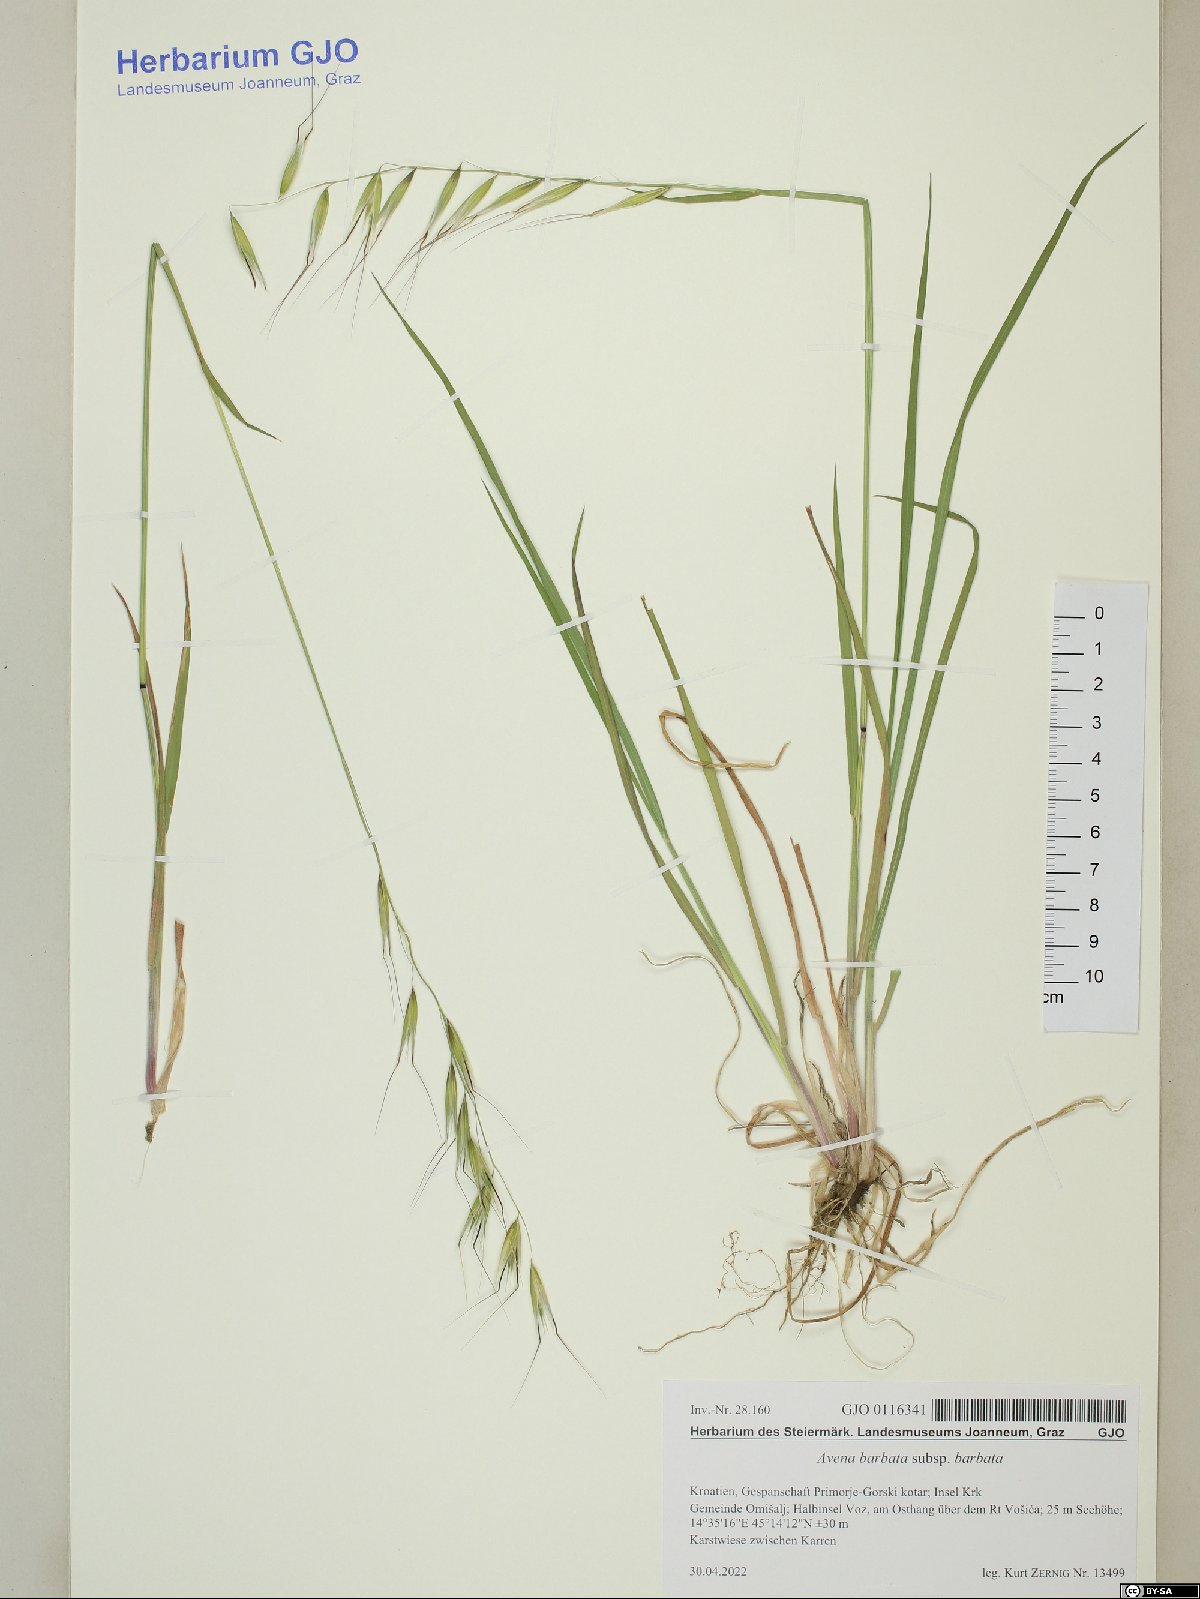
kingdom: Plantae
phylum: Tracheophyta
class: Liliopsida
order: Poales
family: Poaceae
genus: Avena
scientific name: Avena barbata
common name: Slender oat
